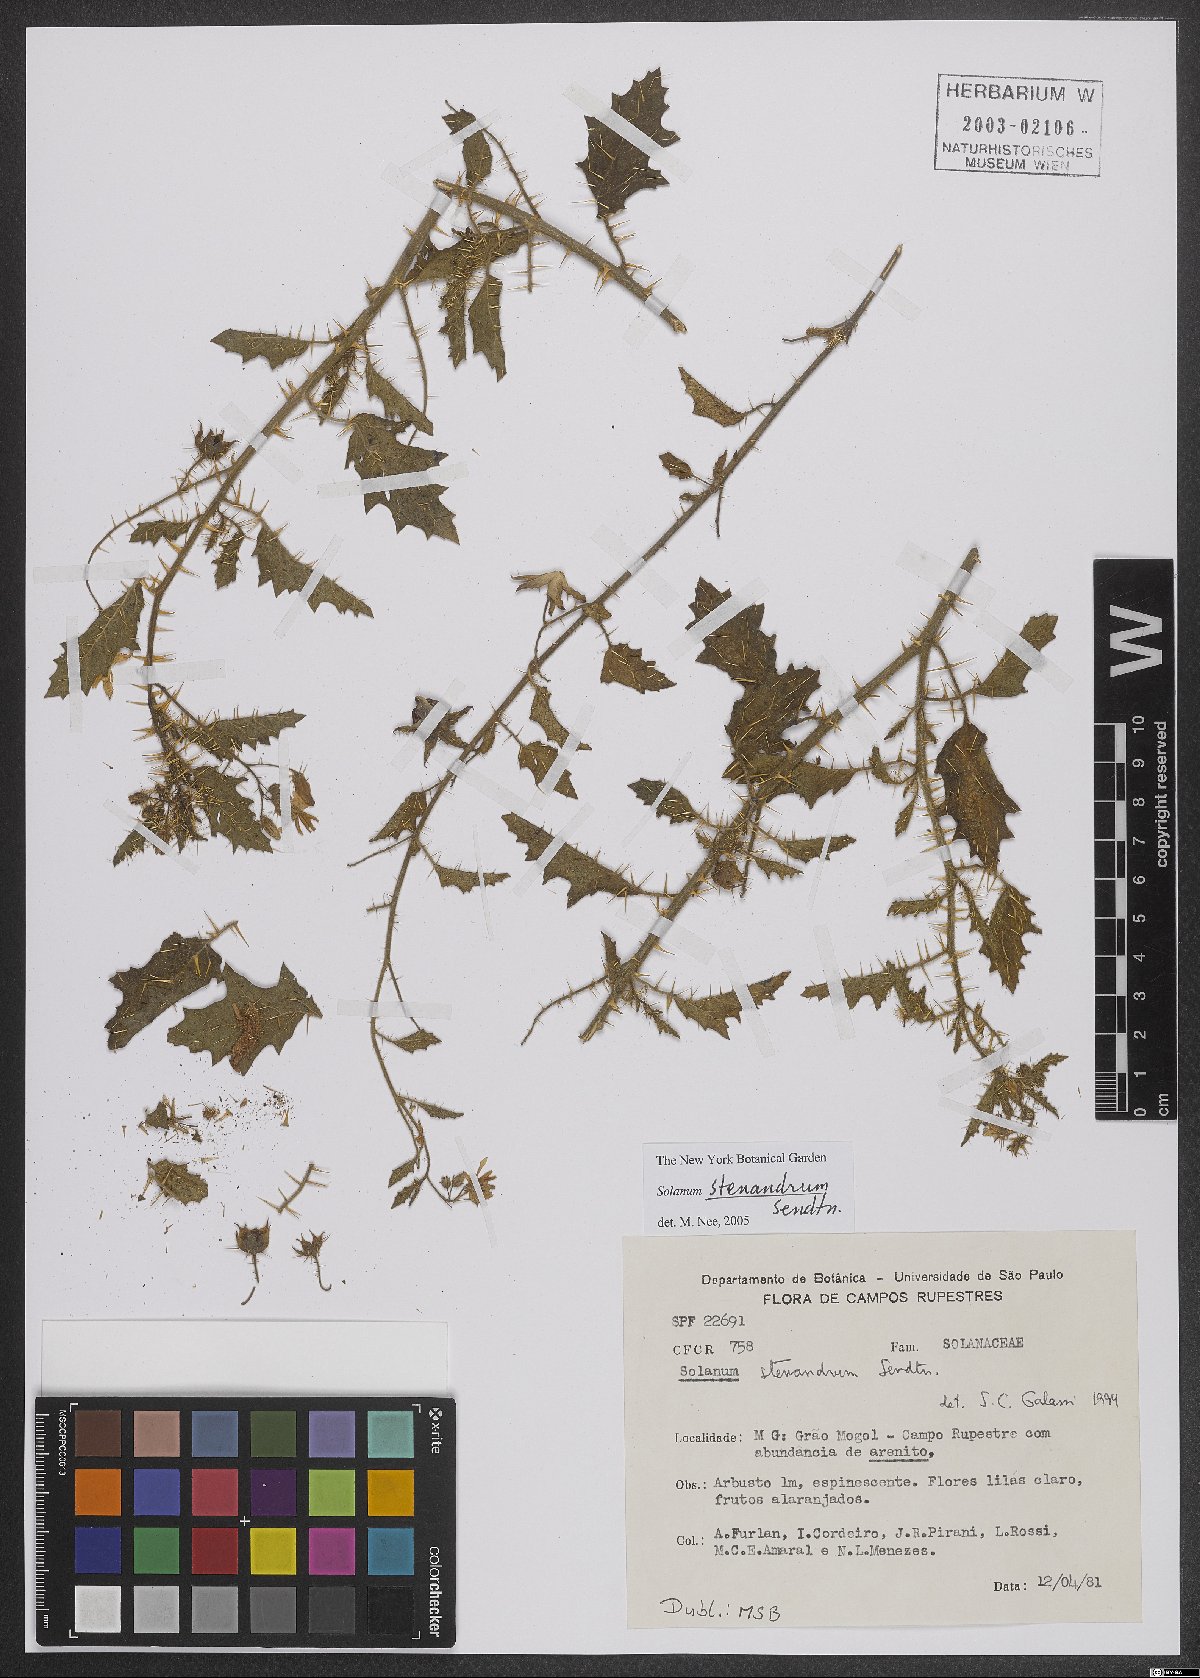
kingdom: Plantae
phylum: Tracheophyta
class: Magnoliopsida
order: Solanales
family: Solanaceae
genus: Solanum
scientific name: Solanum stenandrum
